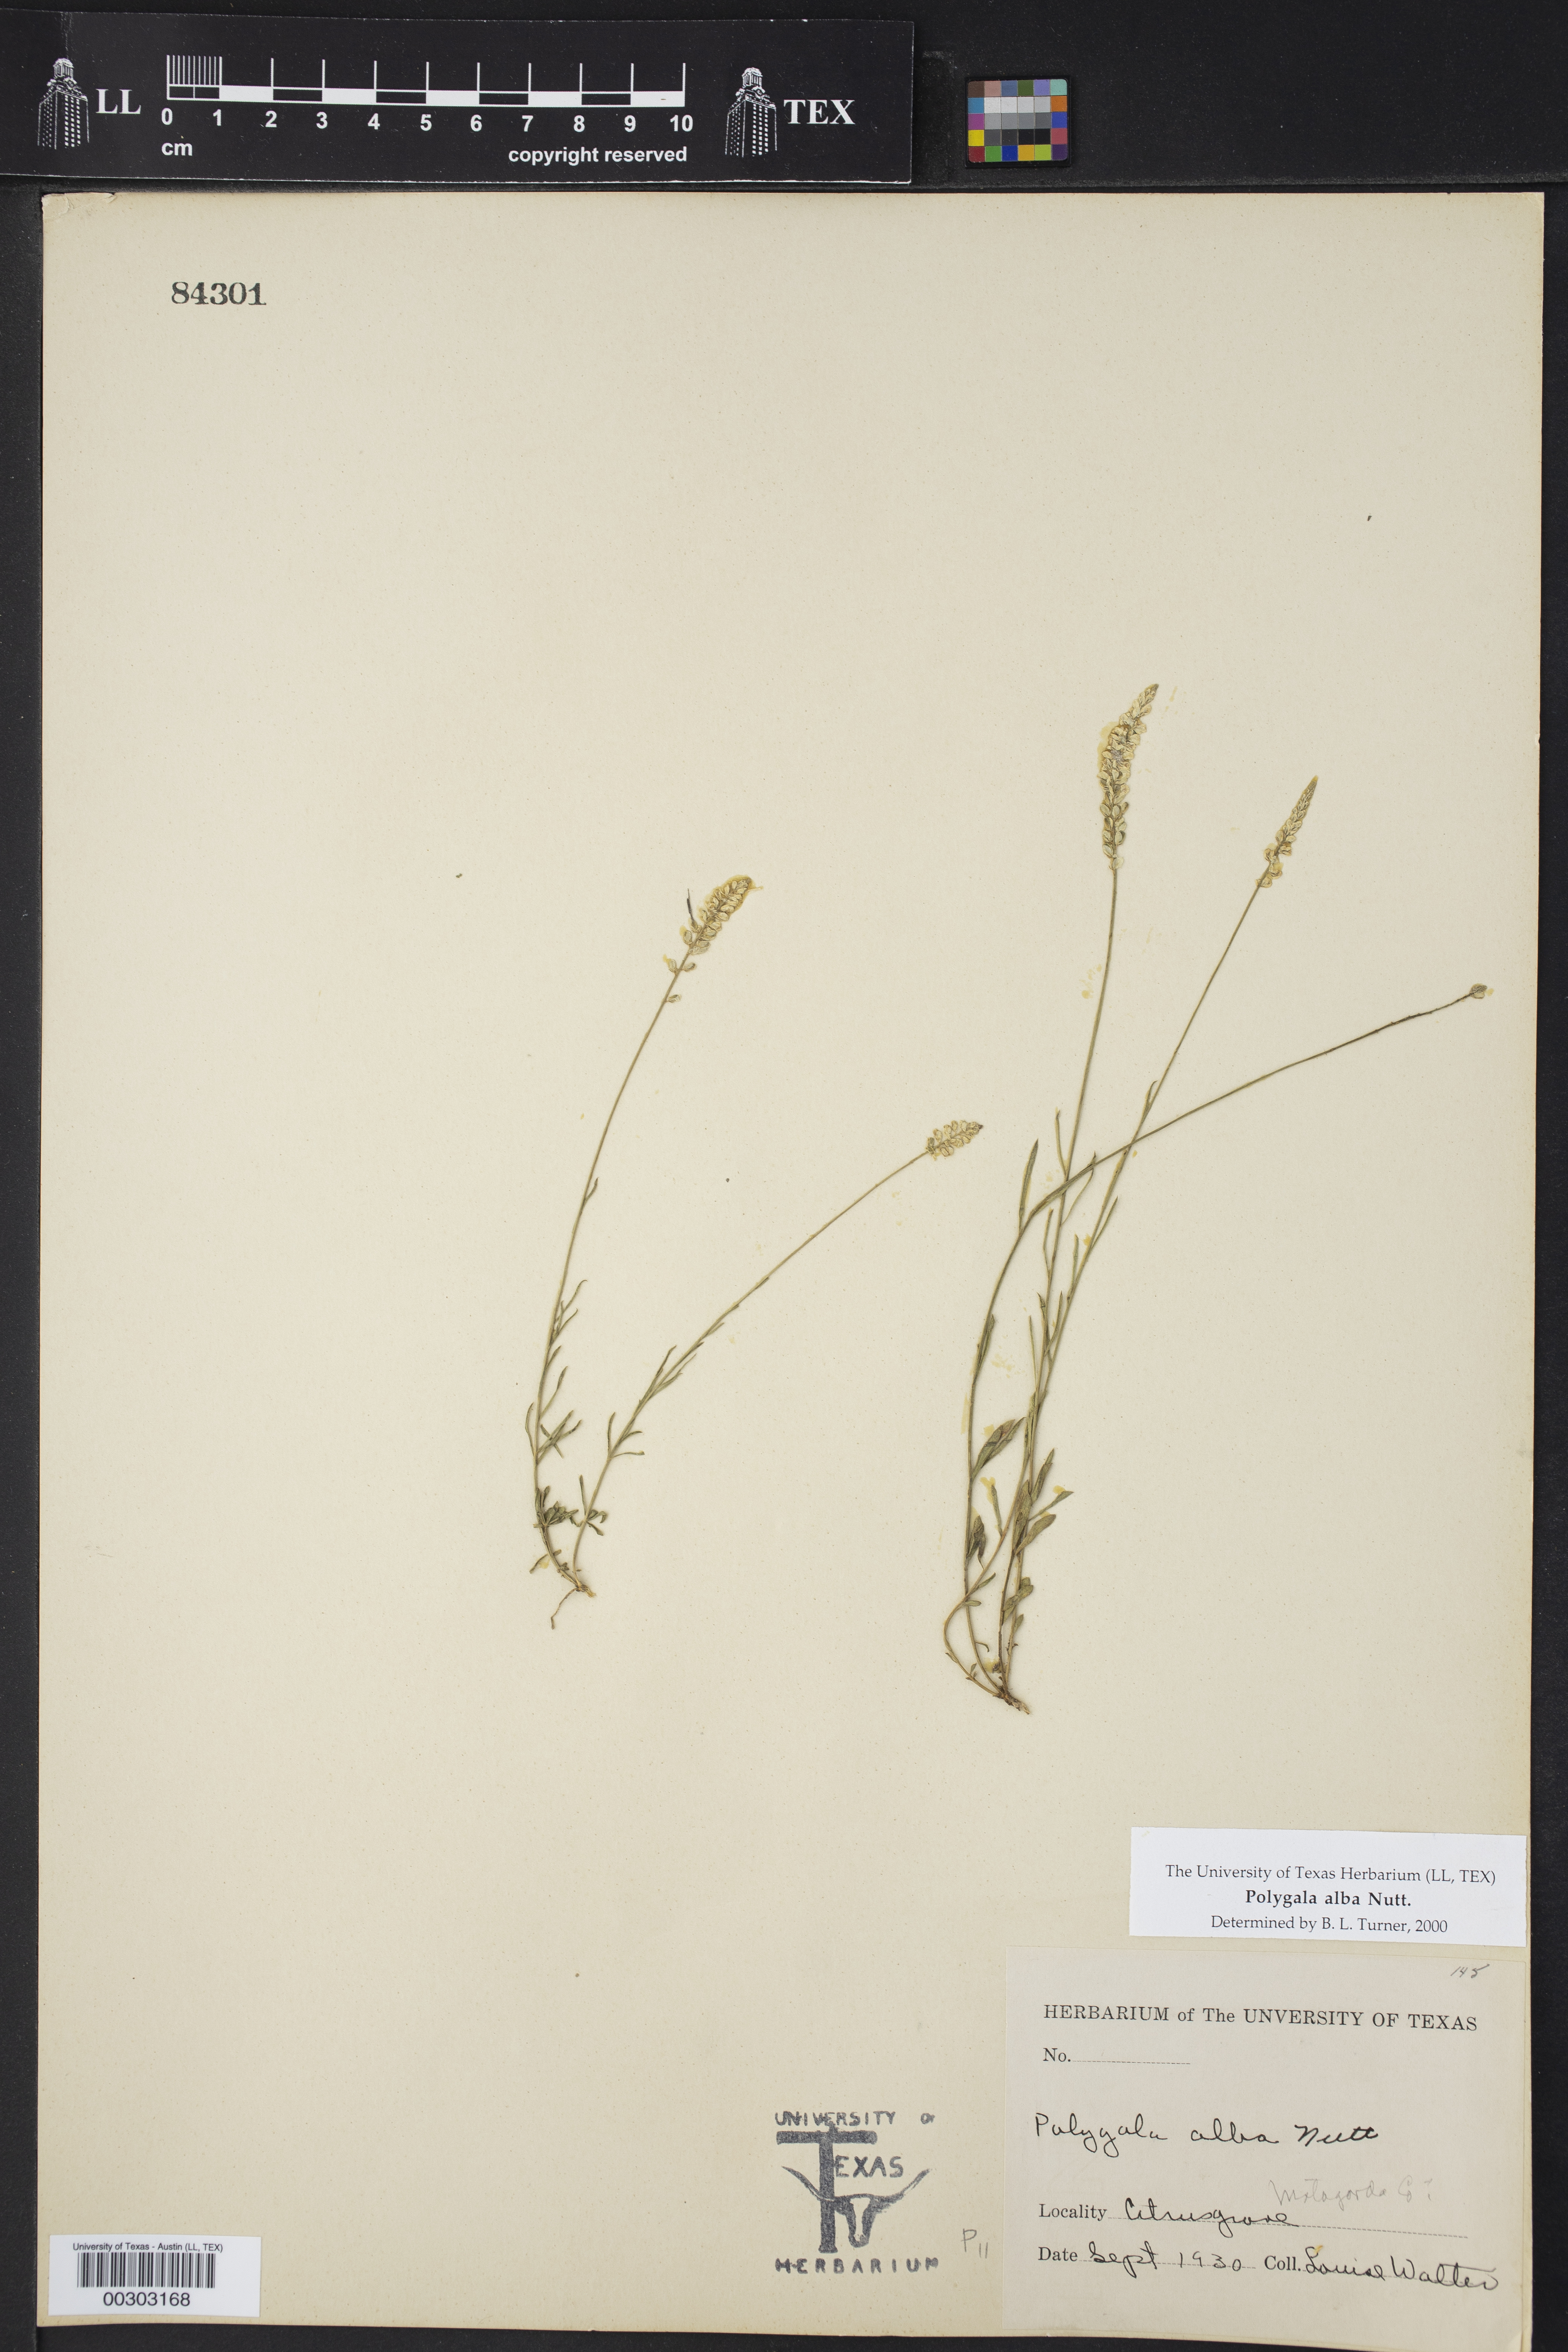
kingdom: Plantae
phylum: Tracheophyta
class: Magnoliopsida
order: Fabales
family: Polygalaceae
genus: Polygala
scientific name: Polygala alba
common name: White milkwort
